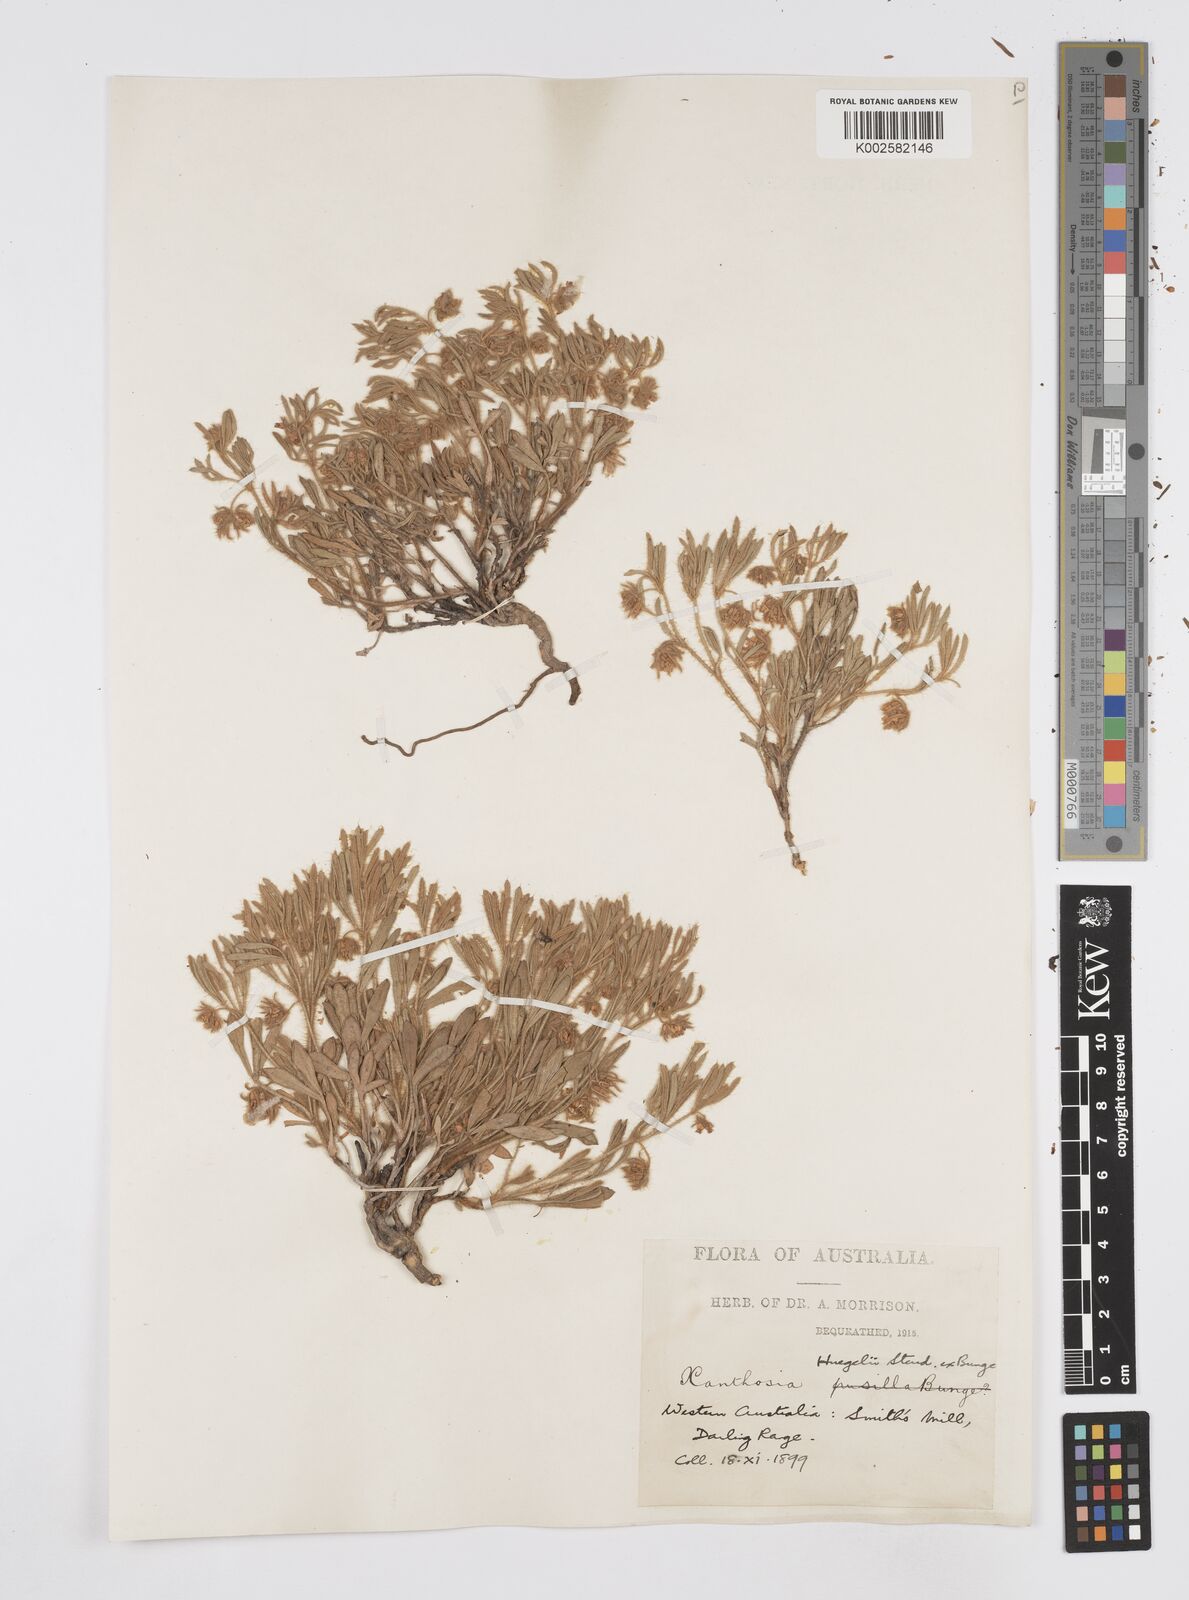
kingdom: Plantae
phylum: Tracheophyta
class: Magnoliopsida
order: Apiales
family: Apiaceae
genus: Xanthosia
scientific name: Xanthosia huegelii
